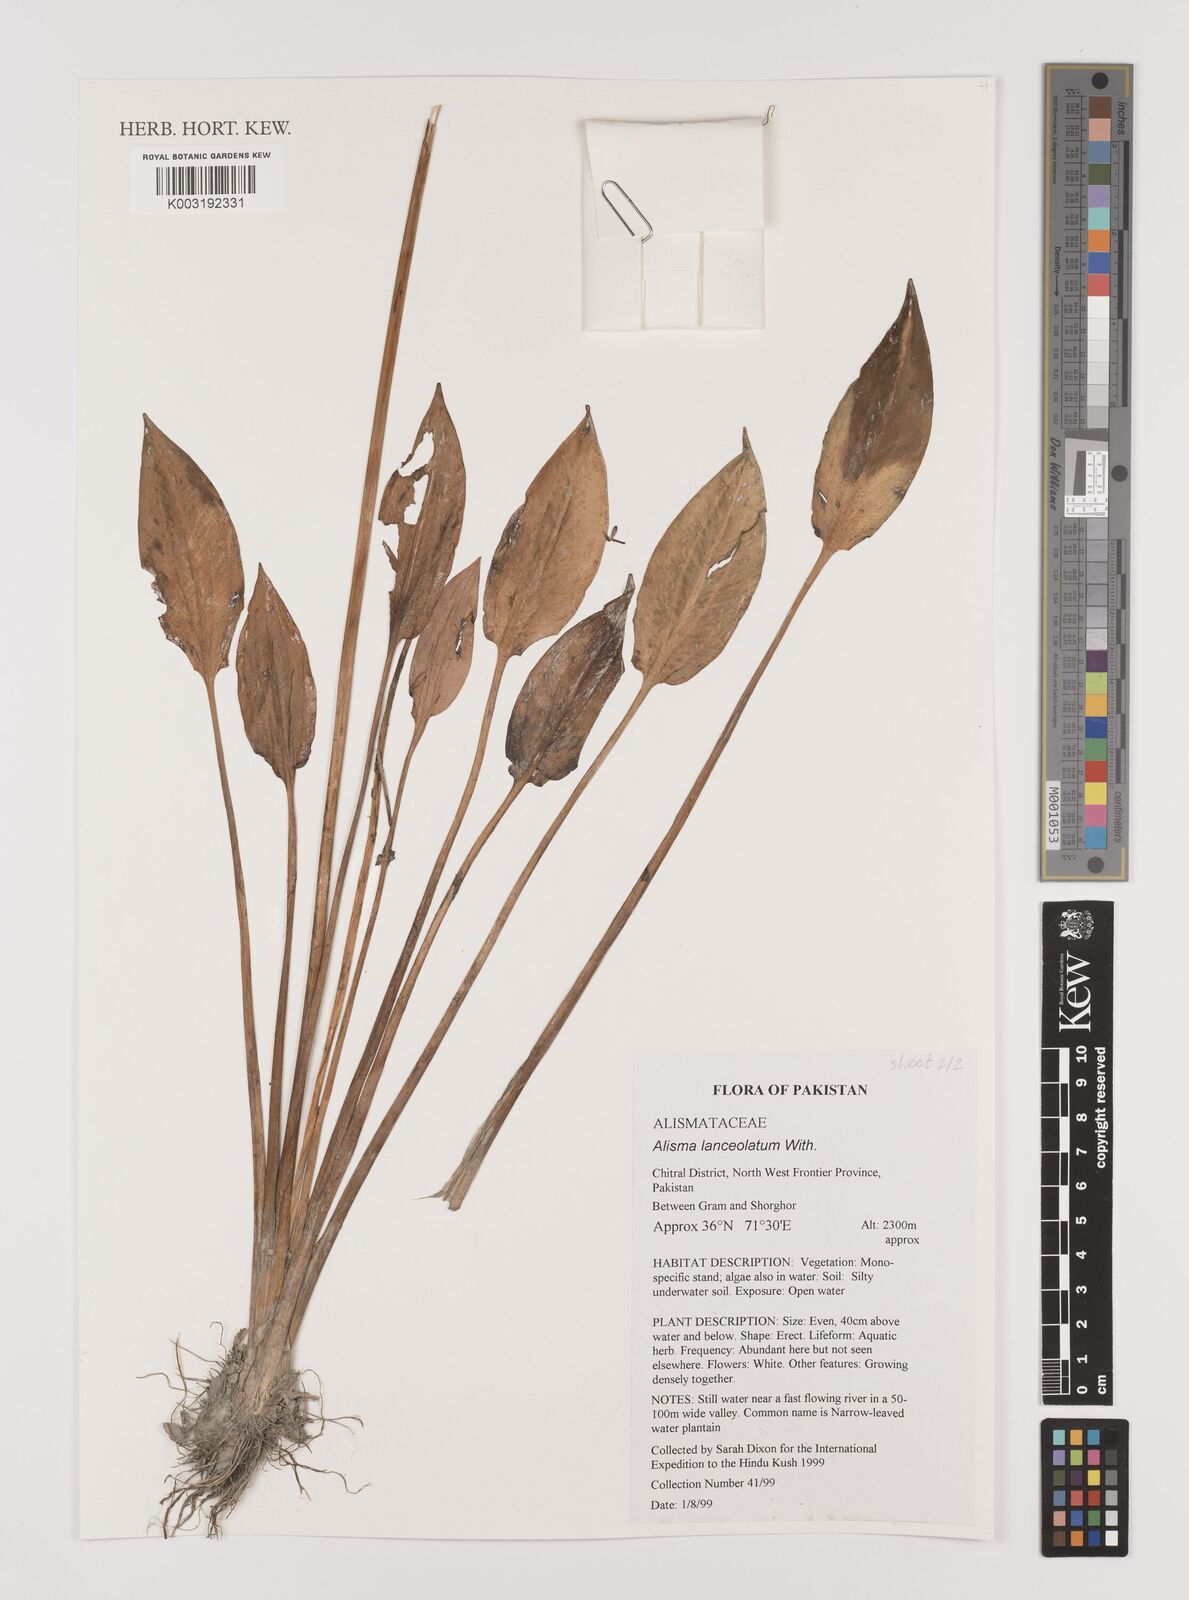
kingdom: Plantae
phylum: Tracheophyta
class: Liliopsida
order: Alismatales
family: Alismataceae
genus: Alisma
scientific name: Alisma lanceolatum
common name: Narrow-leaved water-plantain
